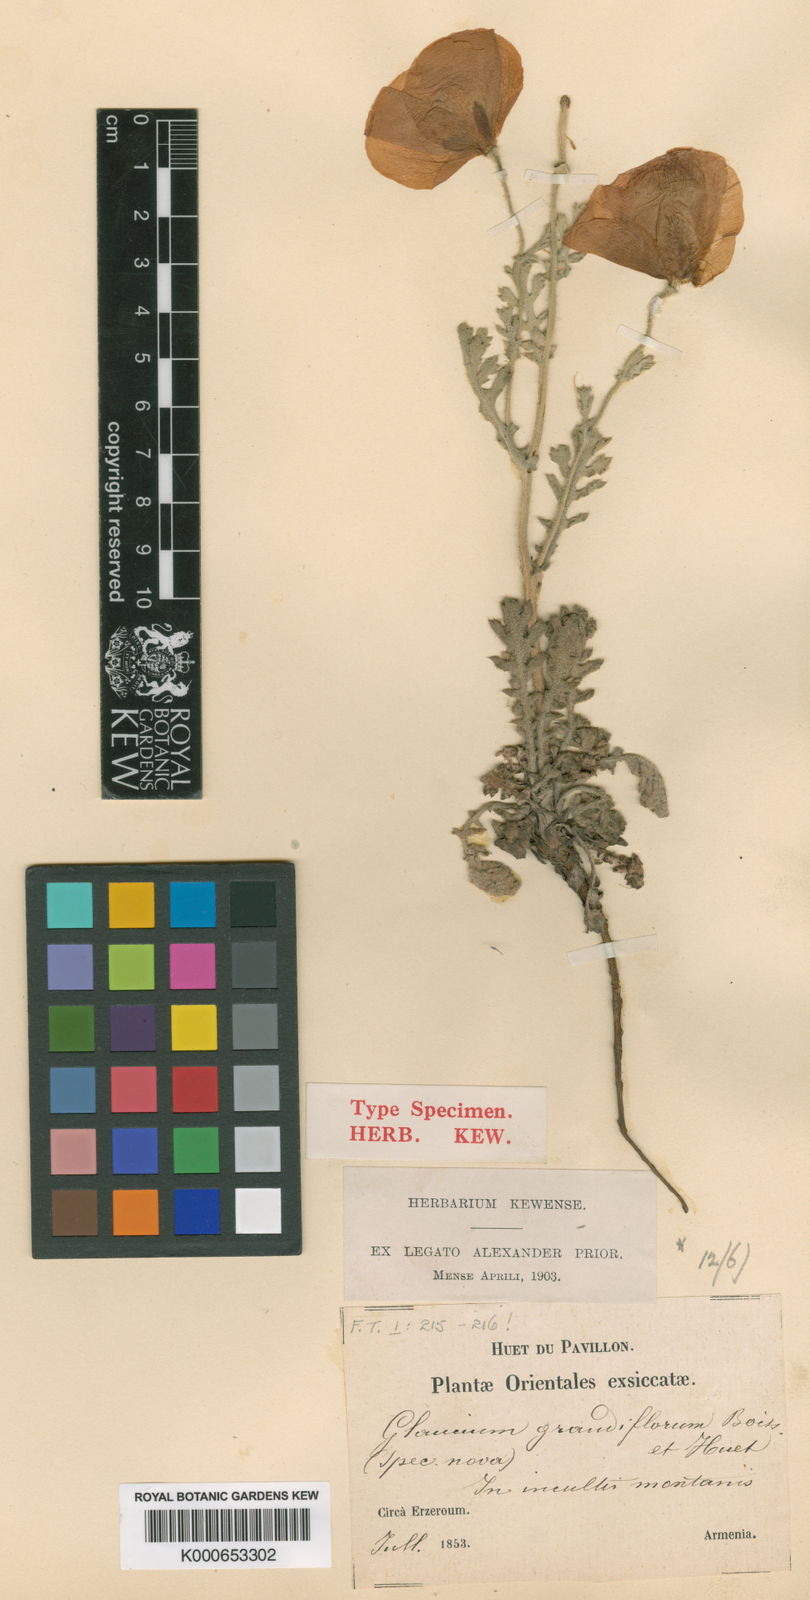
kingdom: Plantae
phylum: Tracheophyta
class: Magnoliopsida
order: Ranunculales
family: Papaveraceae
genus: Glaucium
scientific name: Glaucium grandiflorum
